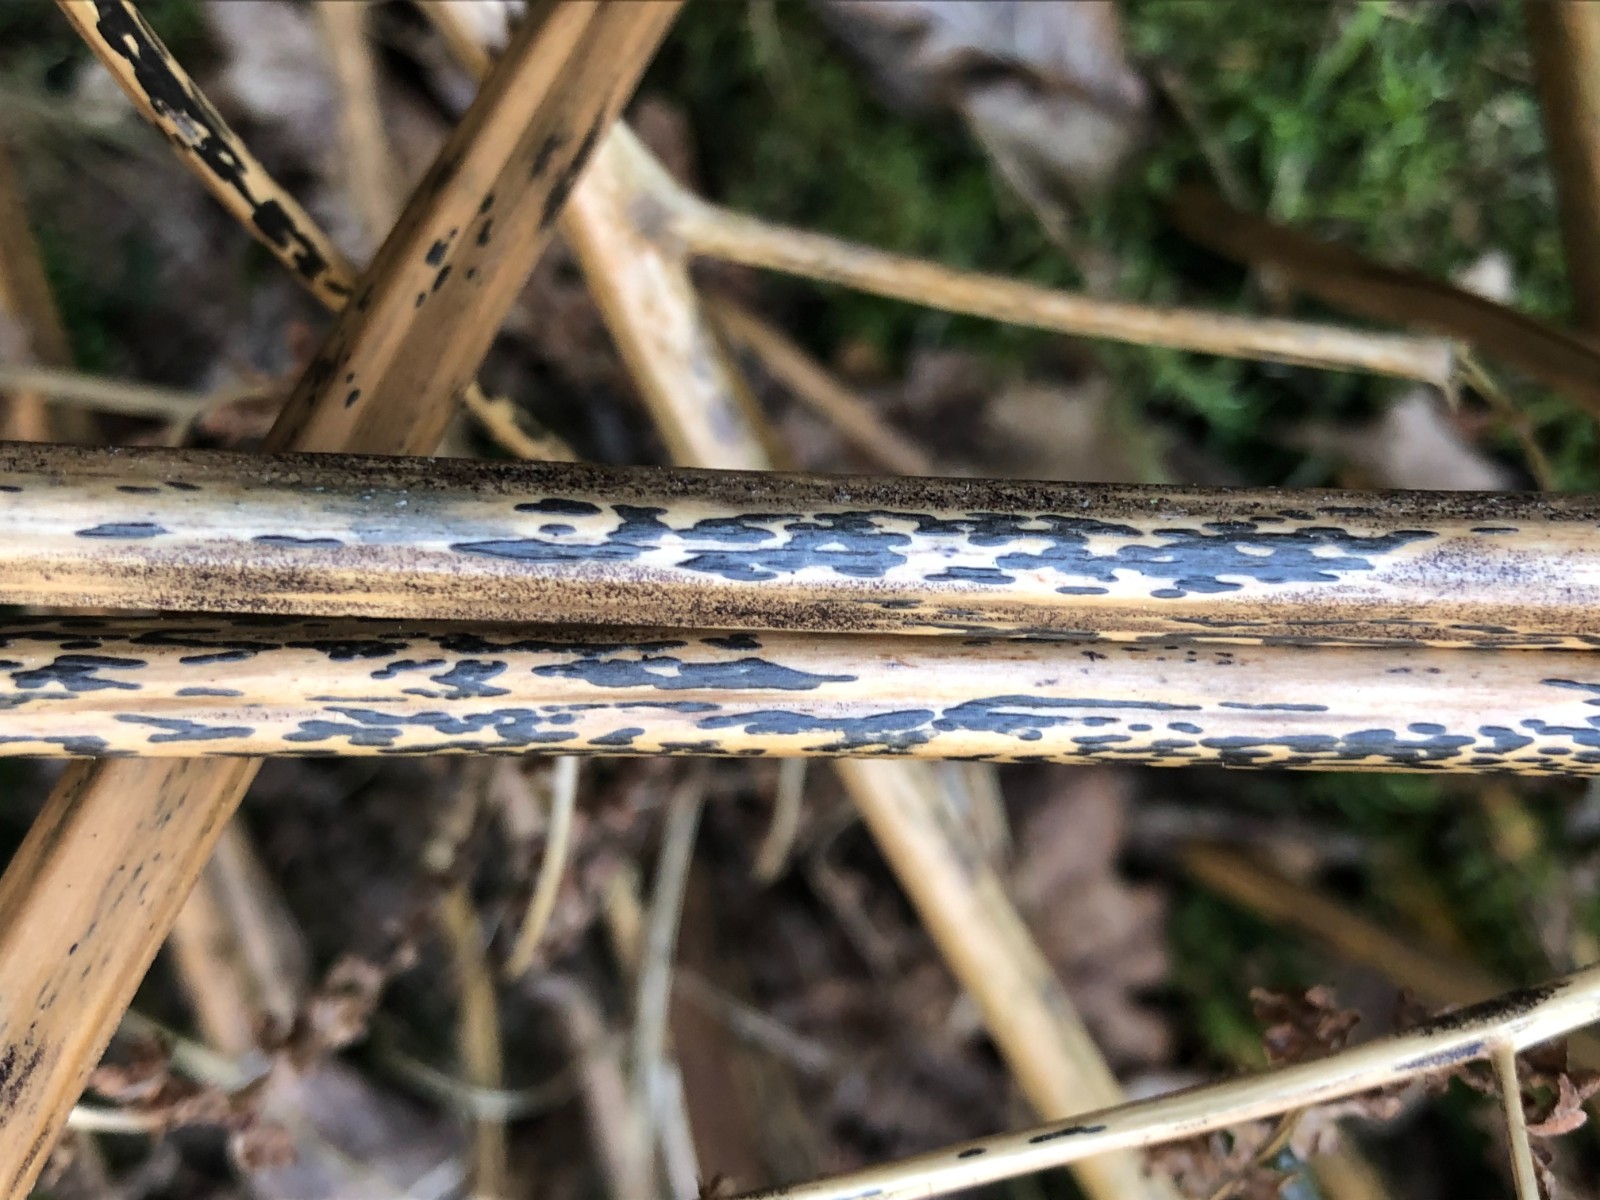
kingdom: Fungi
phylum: Ascomycota
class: Dothideomycetes
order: Pleosporales
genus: Rhopographus
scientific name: Rhopographus filicinus
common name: Bracken map
